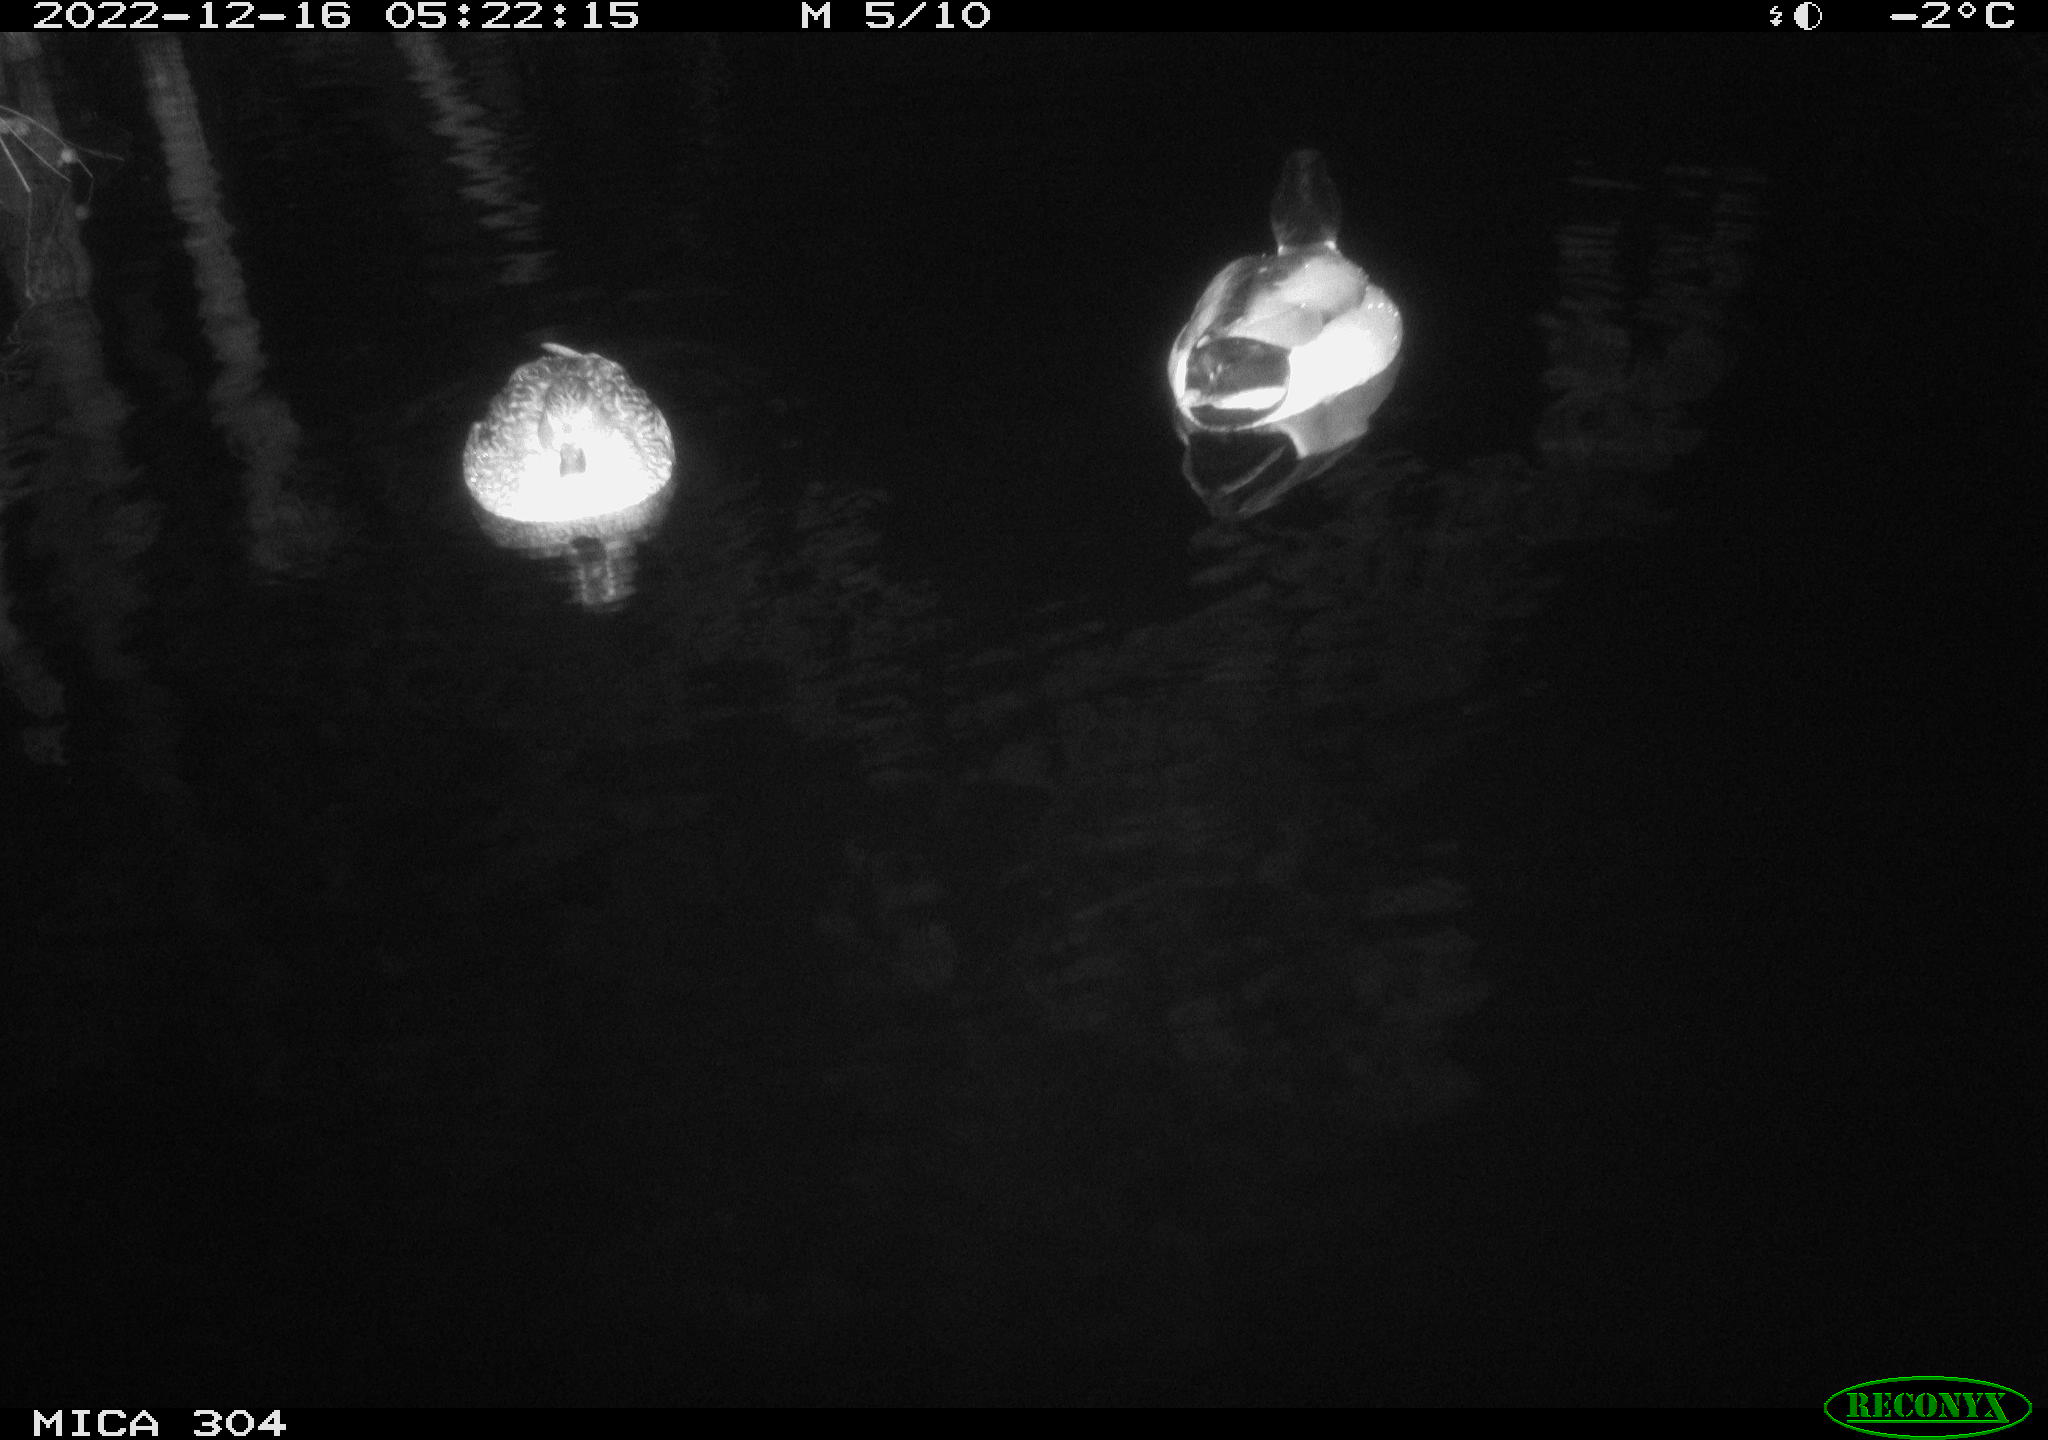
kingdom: Animalia
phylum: Chordata
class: Aves
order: Anseriformes
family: Anatidae
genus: Anas
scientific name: Anas
